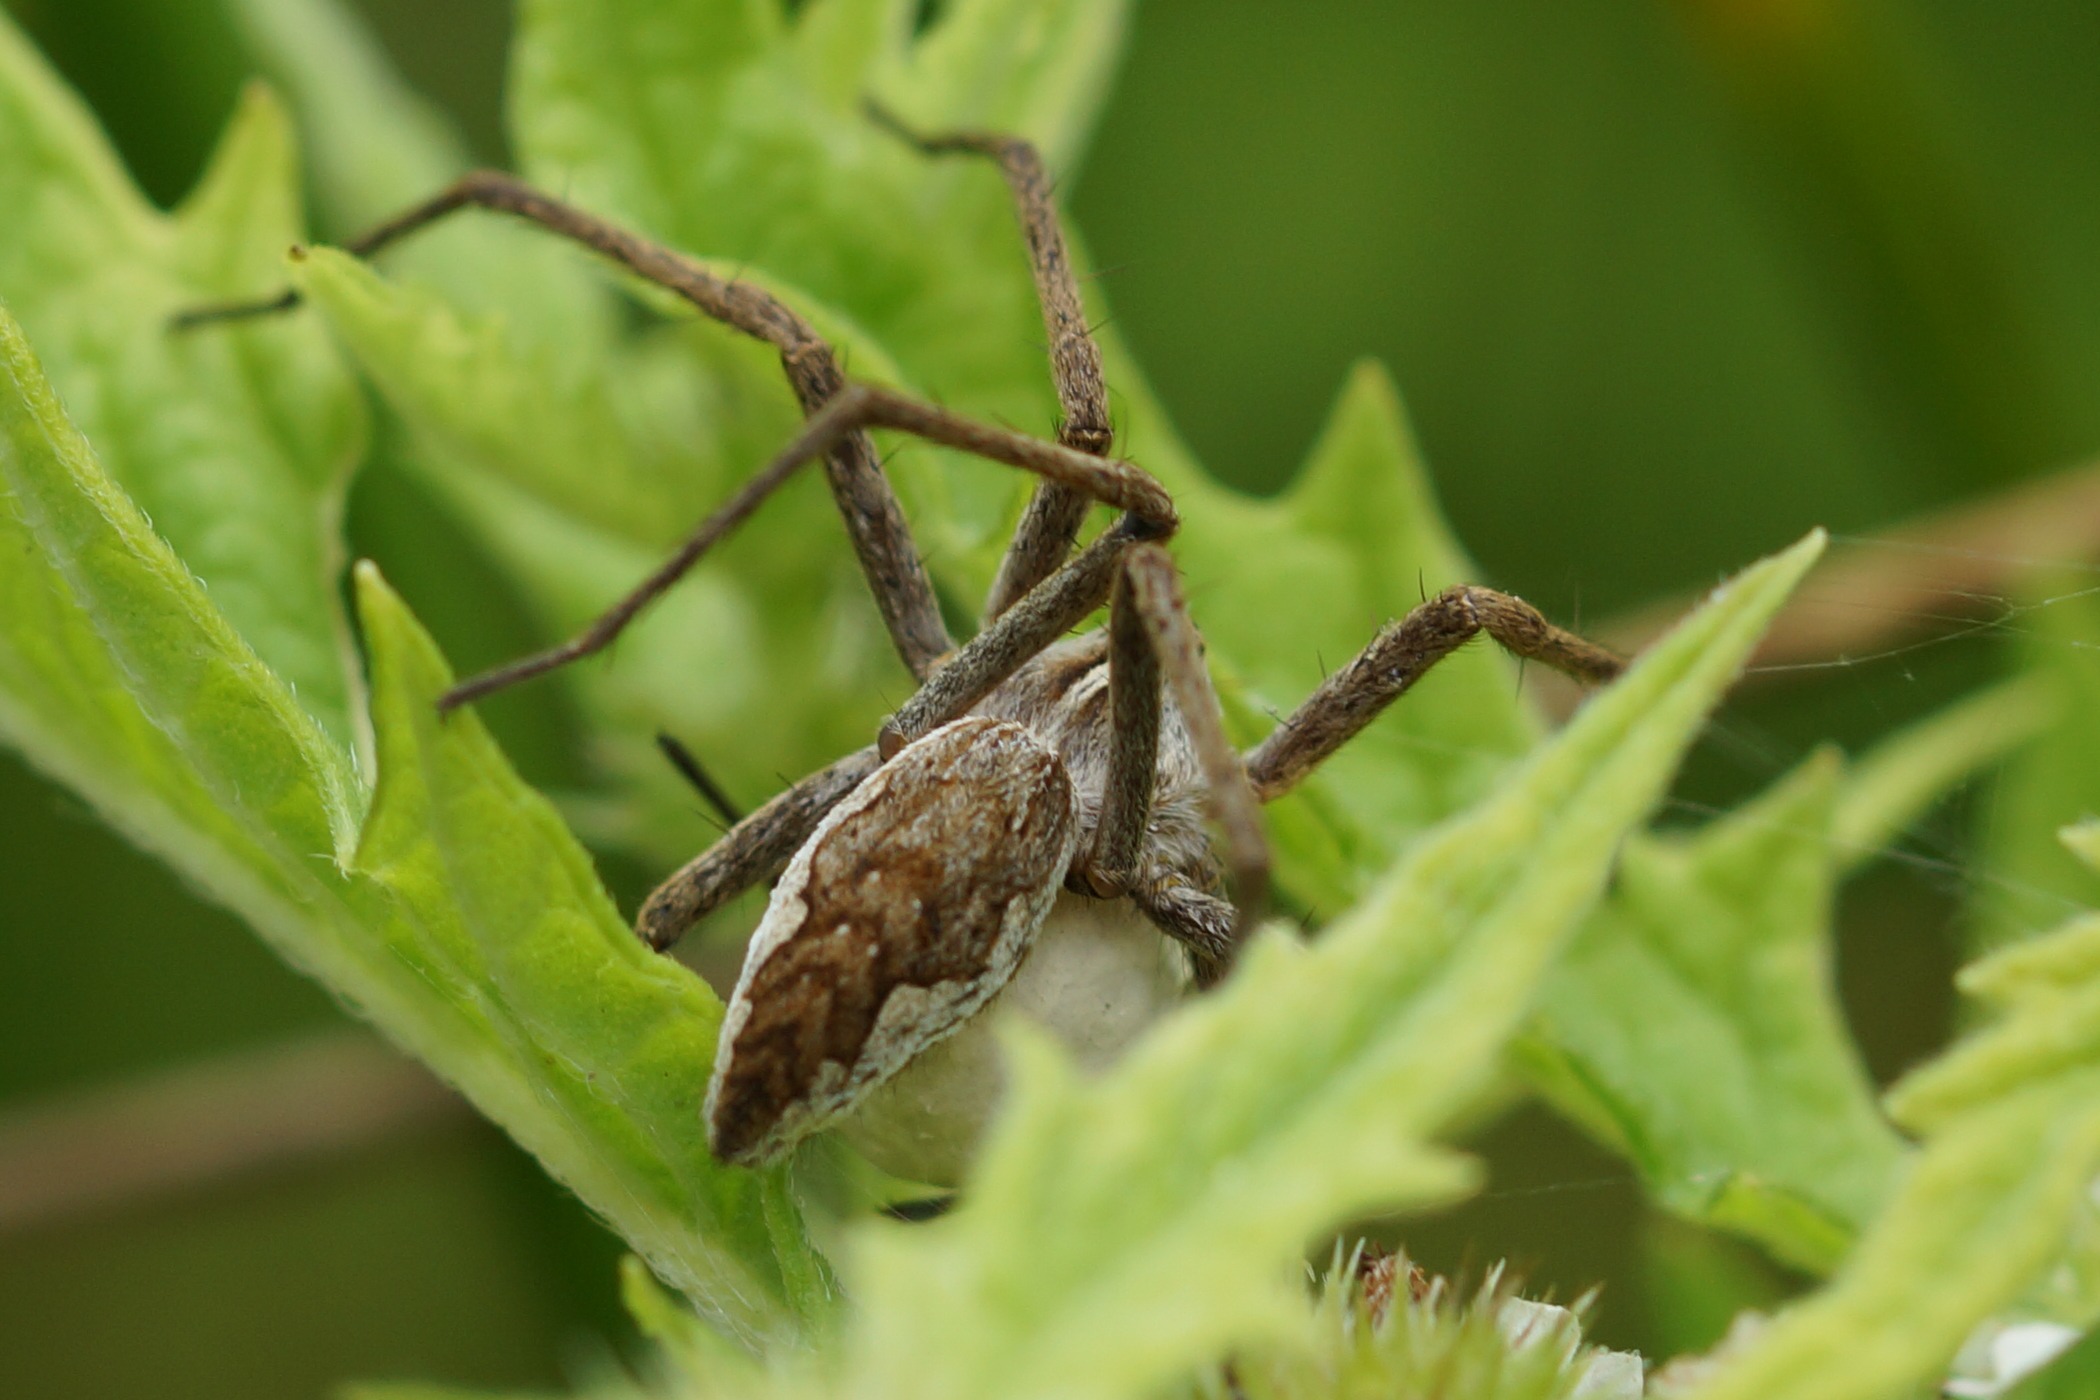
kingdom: Animalia
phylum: Arthropoda
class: Arachnida
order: Araneae
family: Pisauridae
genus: Pisaura
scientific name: Pisaura mirabilis
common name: Almindelig rovedderkop
